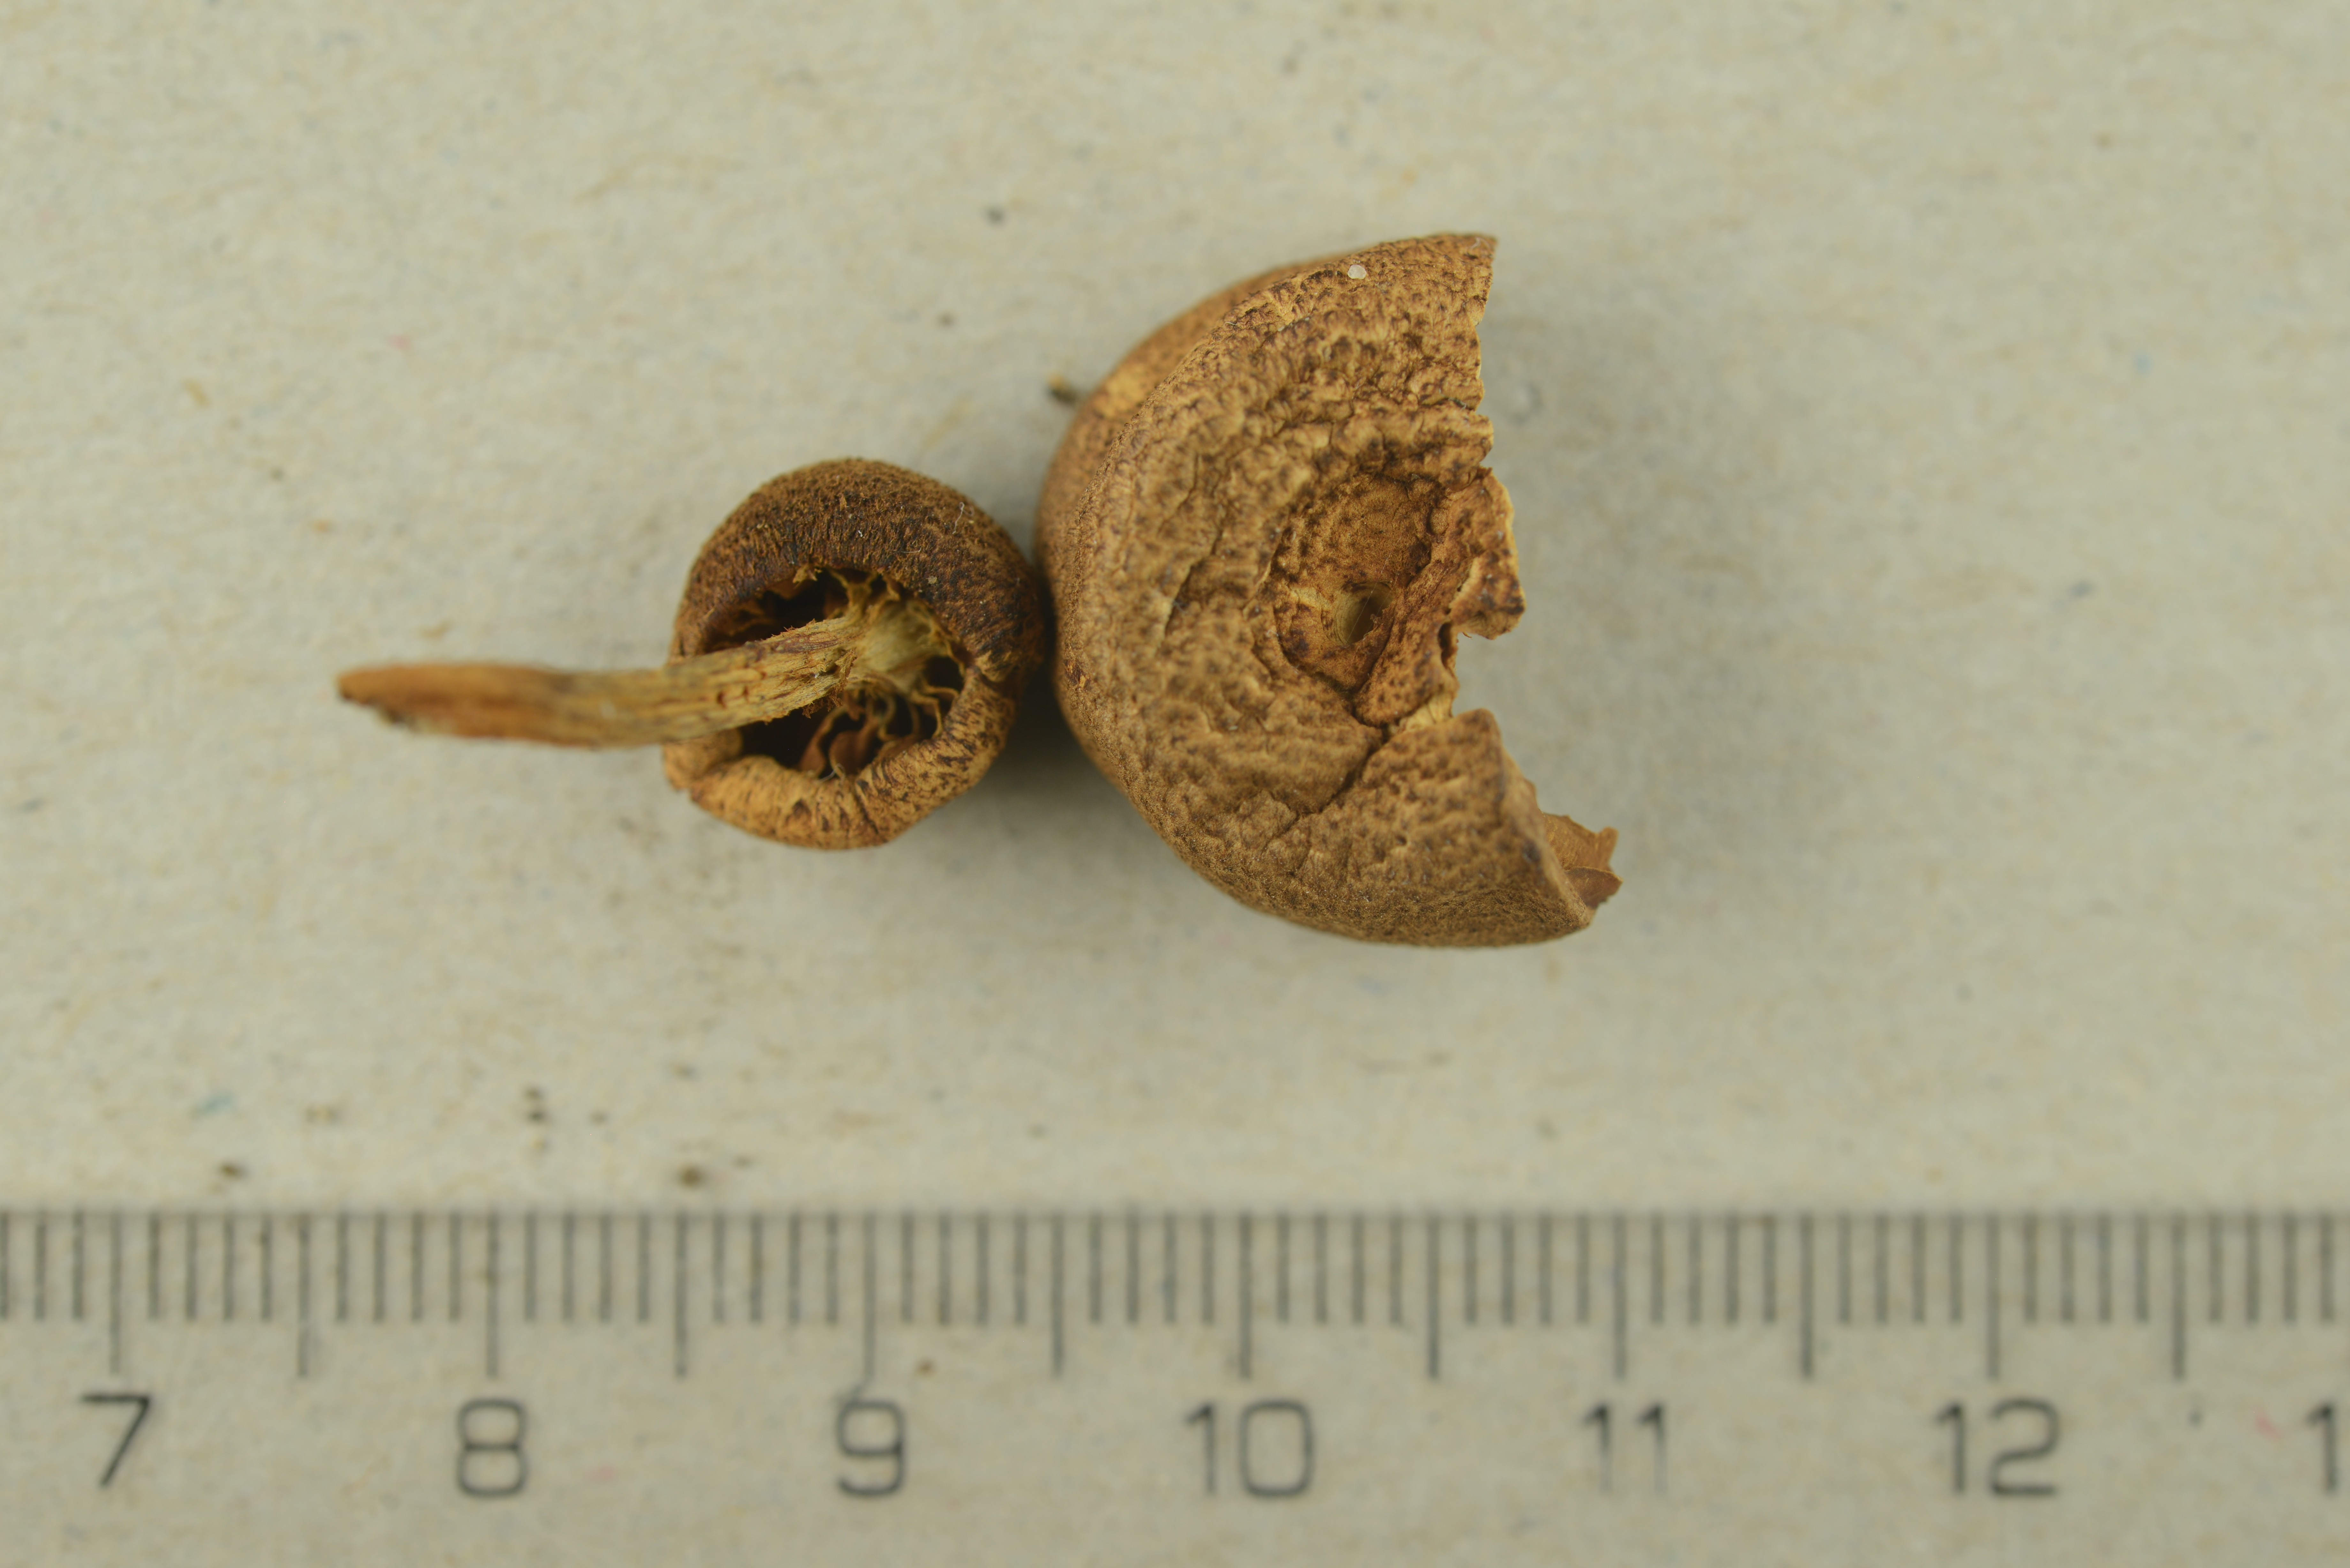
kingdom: Fungi
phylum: Basidiomycota
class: Agaricomycetes
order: Agaricales
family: Tubariaceae
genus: Flammulaster
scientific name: Flammulaster limulatus
